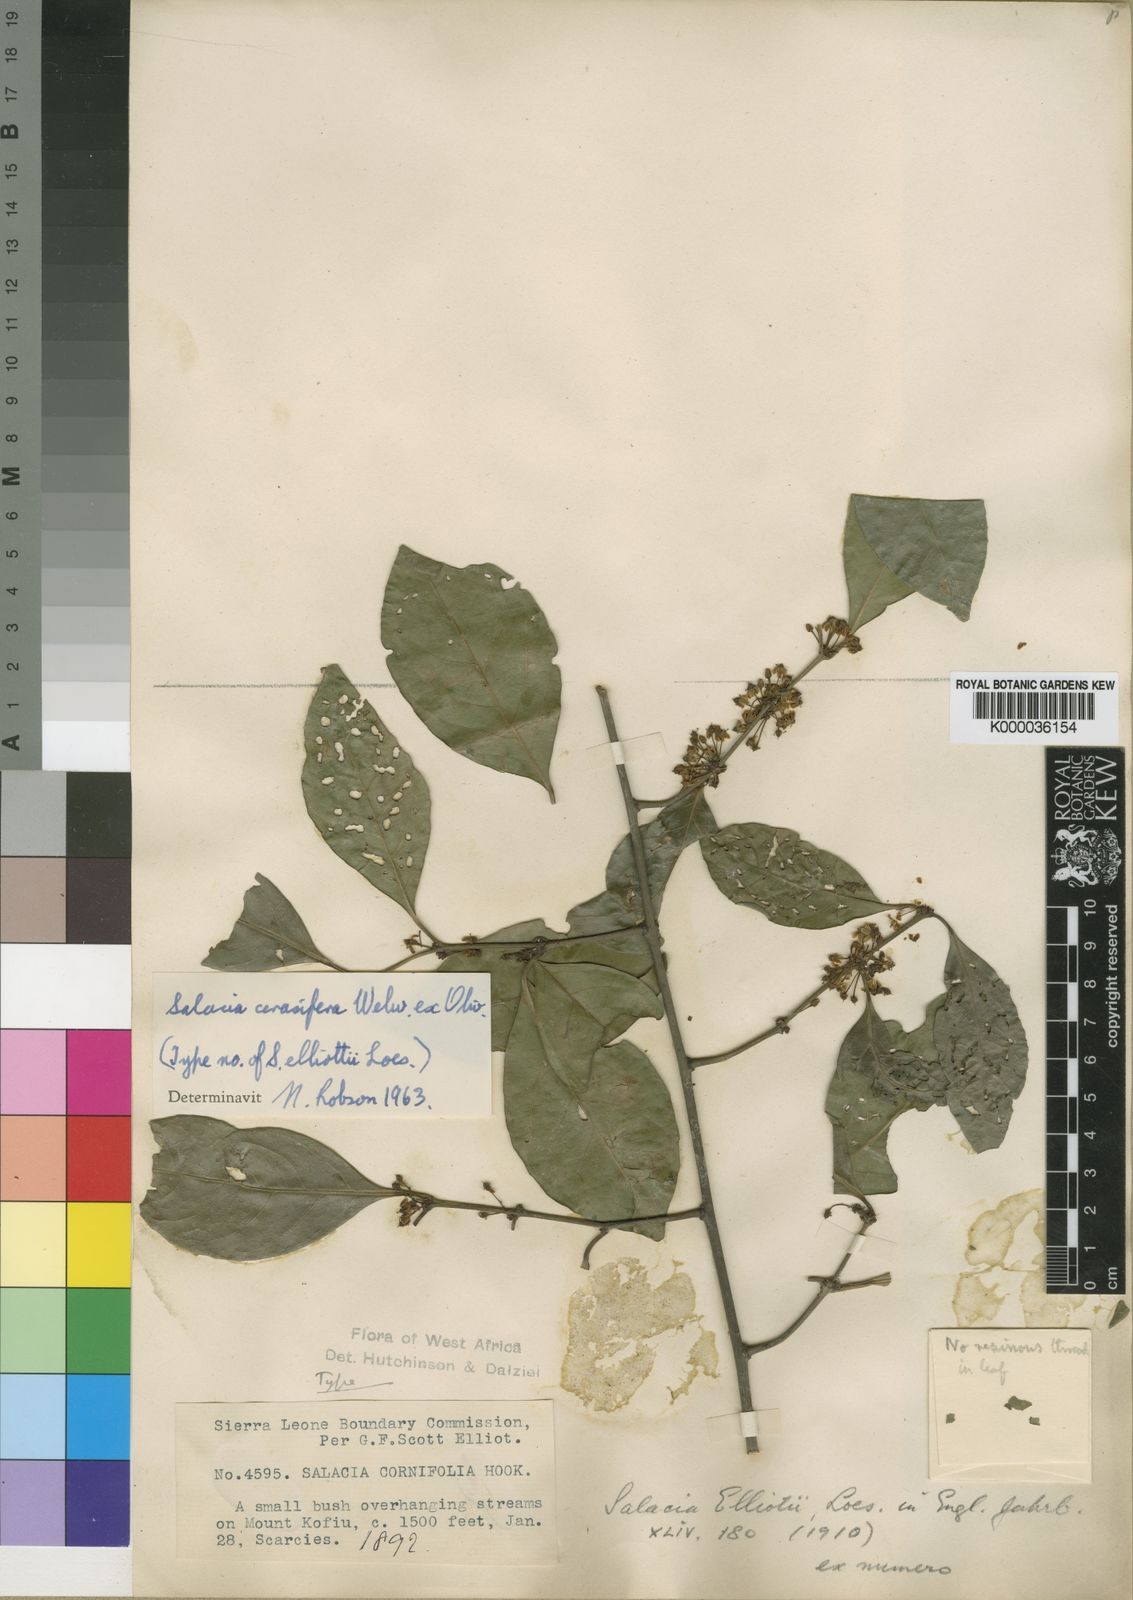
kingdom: Plantae
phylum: Tracheophyta
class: Magnoliopsida
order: Celastrales
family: Celastraceae
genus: Salacia
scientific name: Salacia cerasifera
